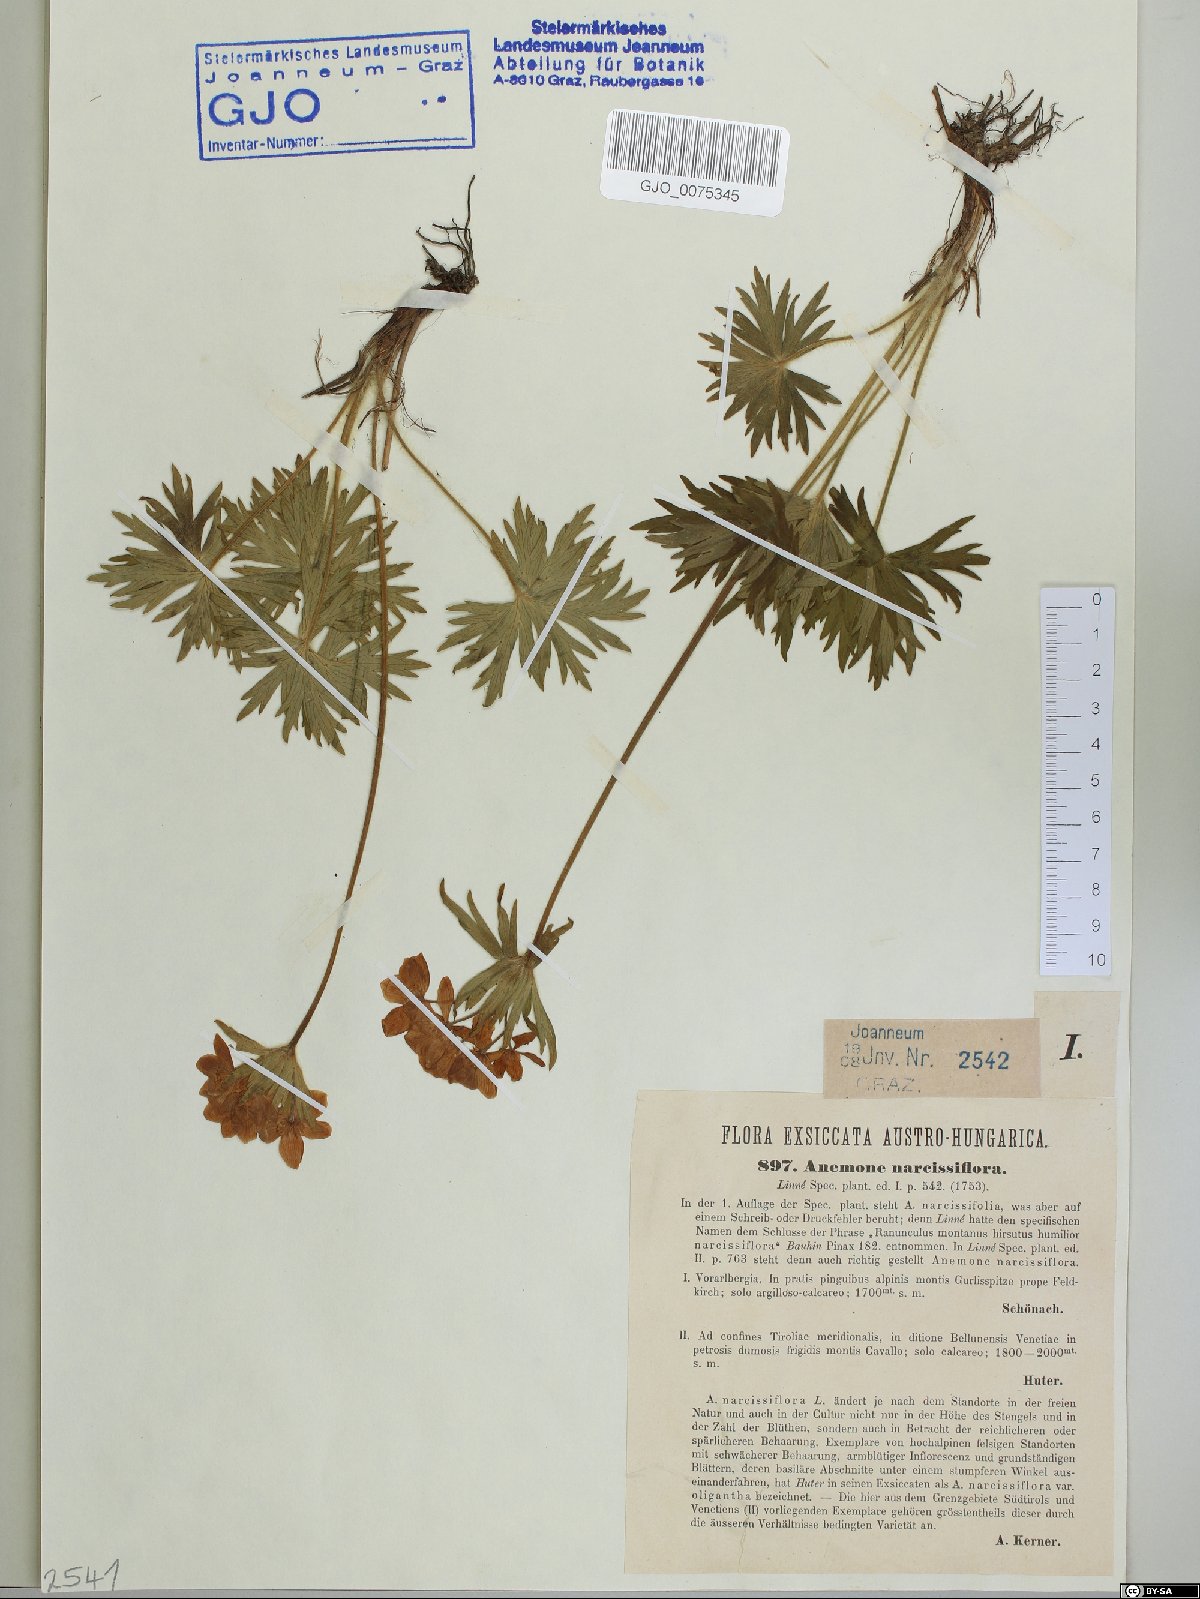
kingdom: Plantae
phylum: Tracheophyta
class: Magnoliopsida
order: Ranunculales
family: Ranunculaceae
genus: Anemonastrum
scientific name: Anemonastrum narcissiflorum
